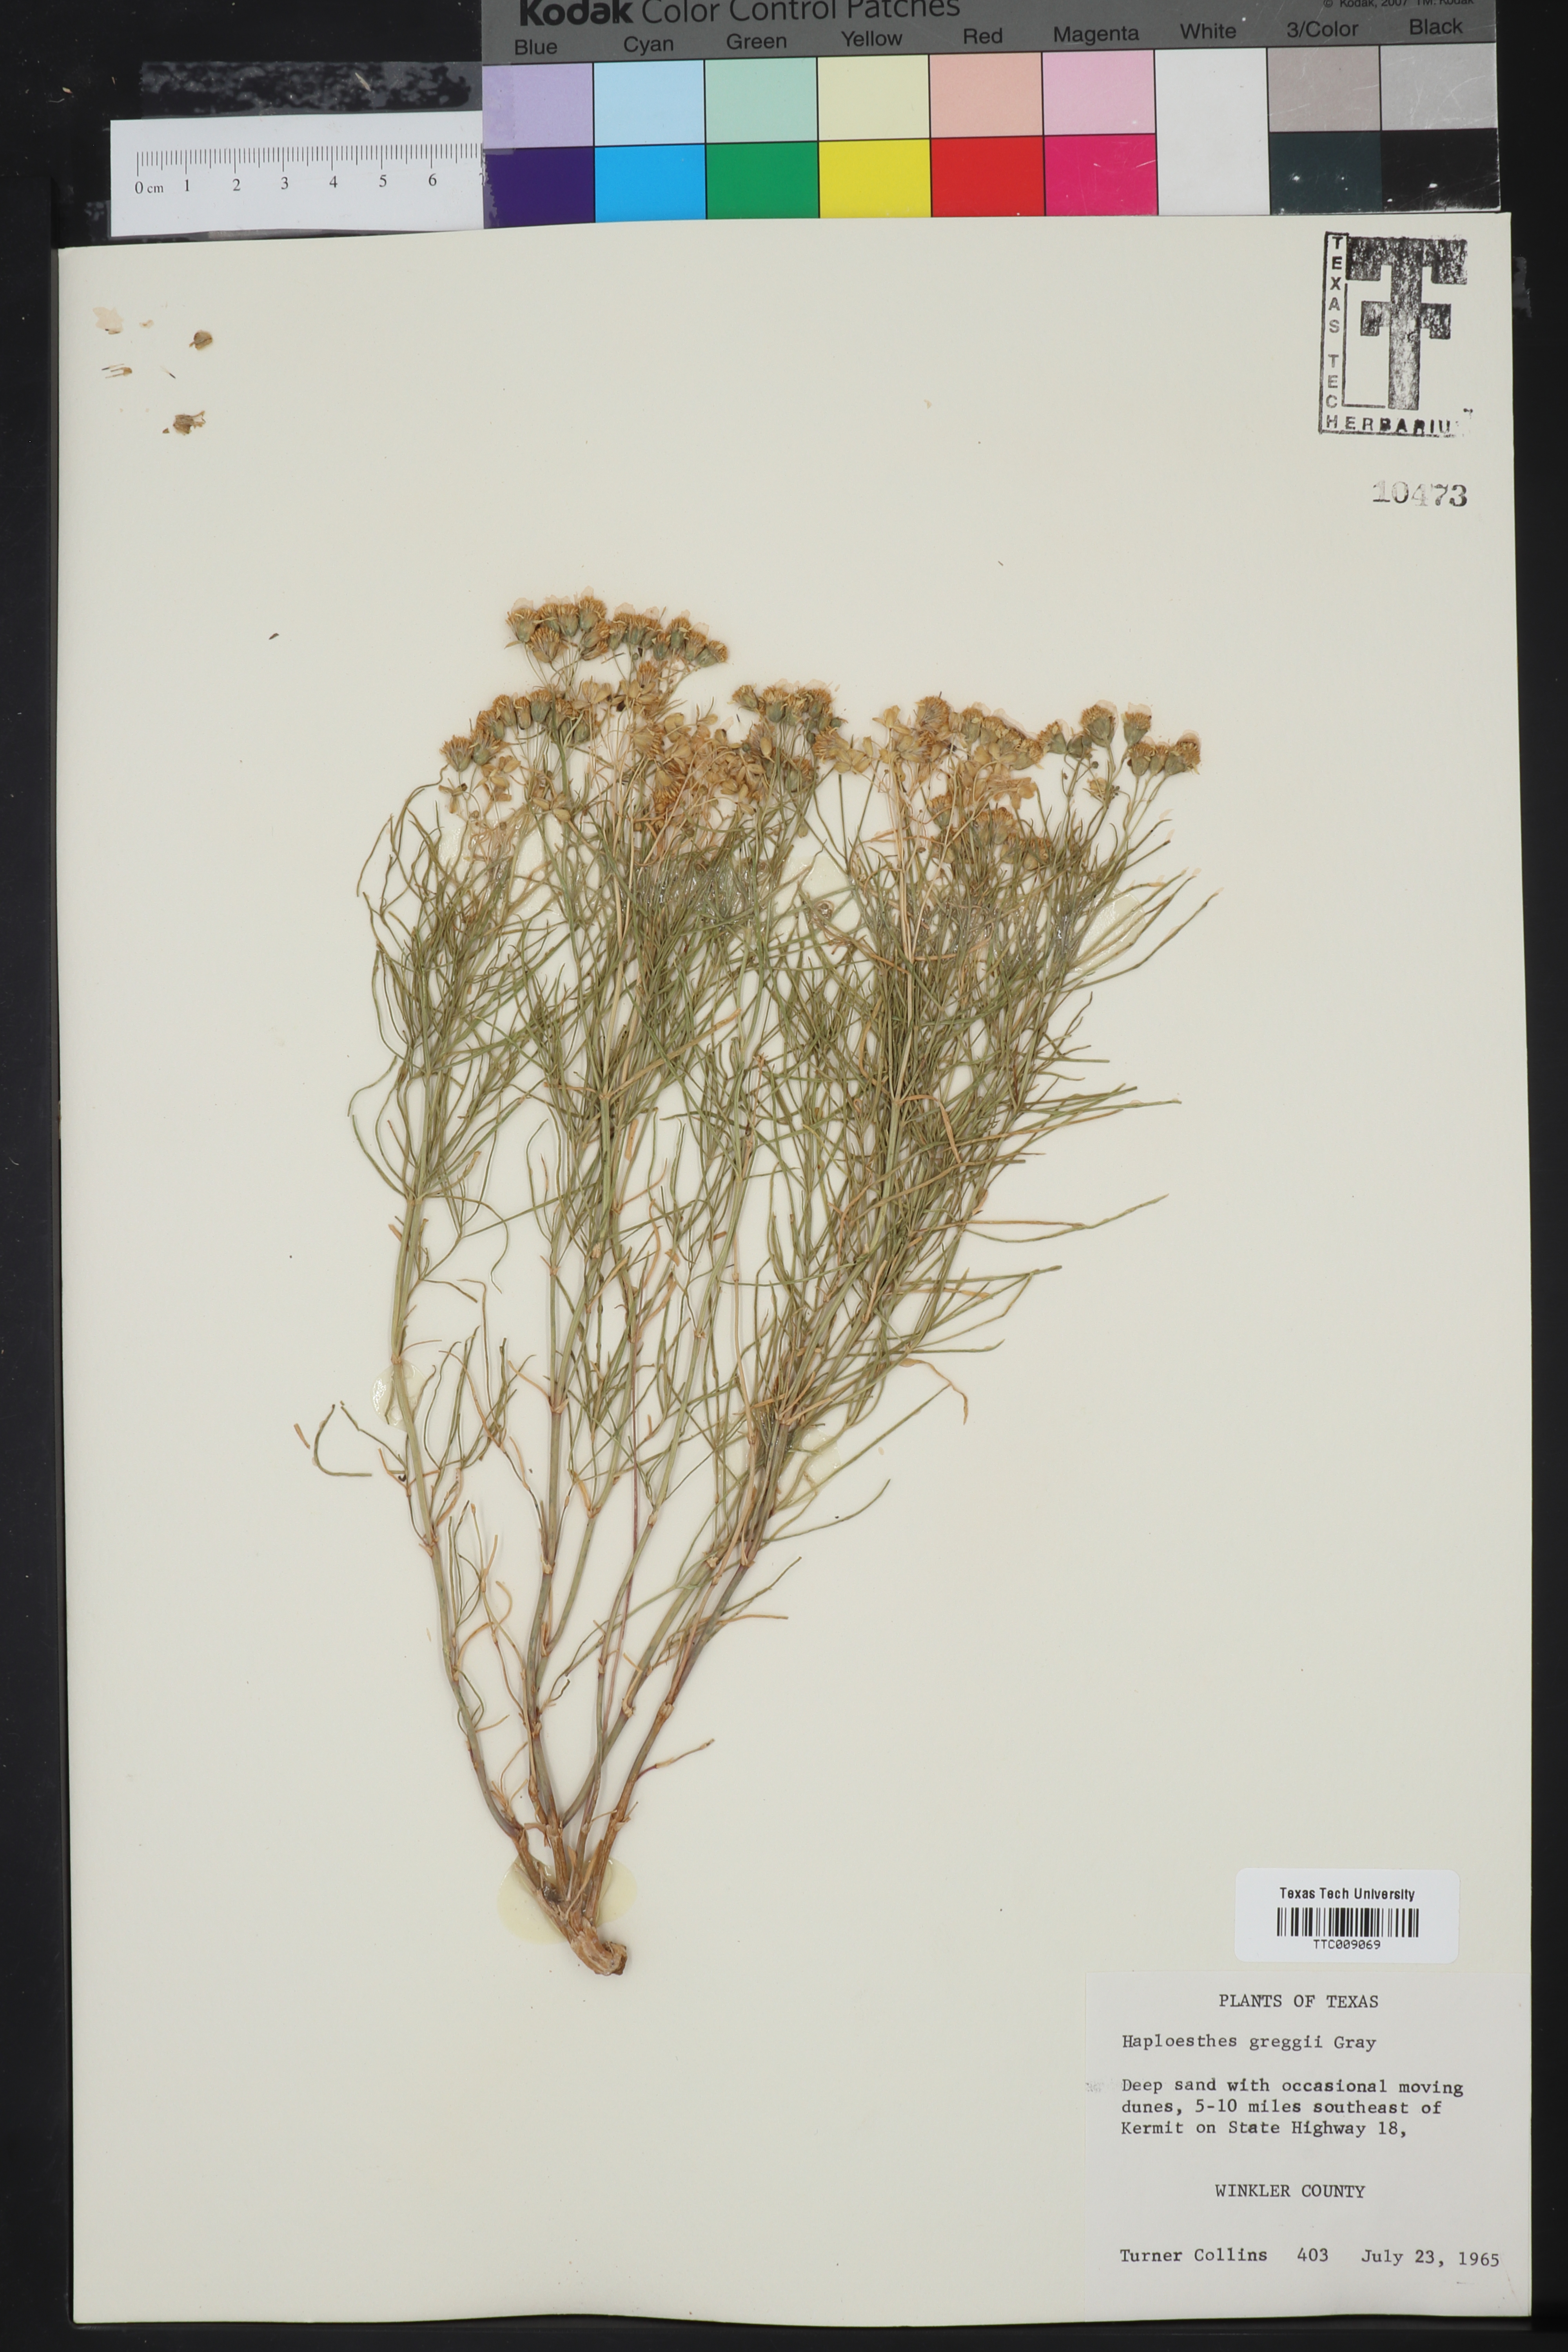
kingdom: Plantae
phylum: Tracheophyta
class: Magnoliopsida
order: Asterales
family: Asteraceae
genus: Haploesthes
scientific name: Haploesthes greggii
